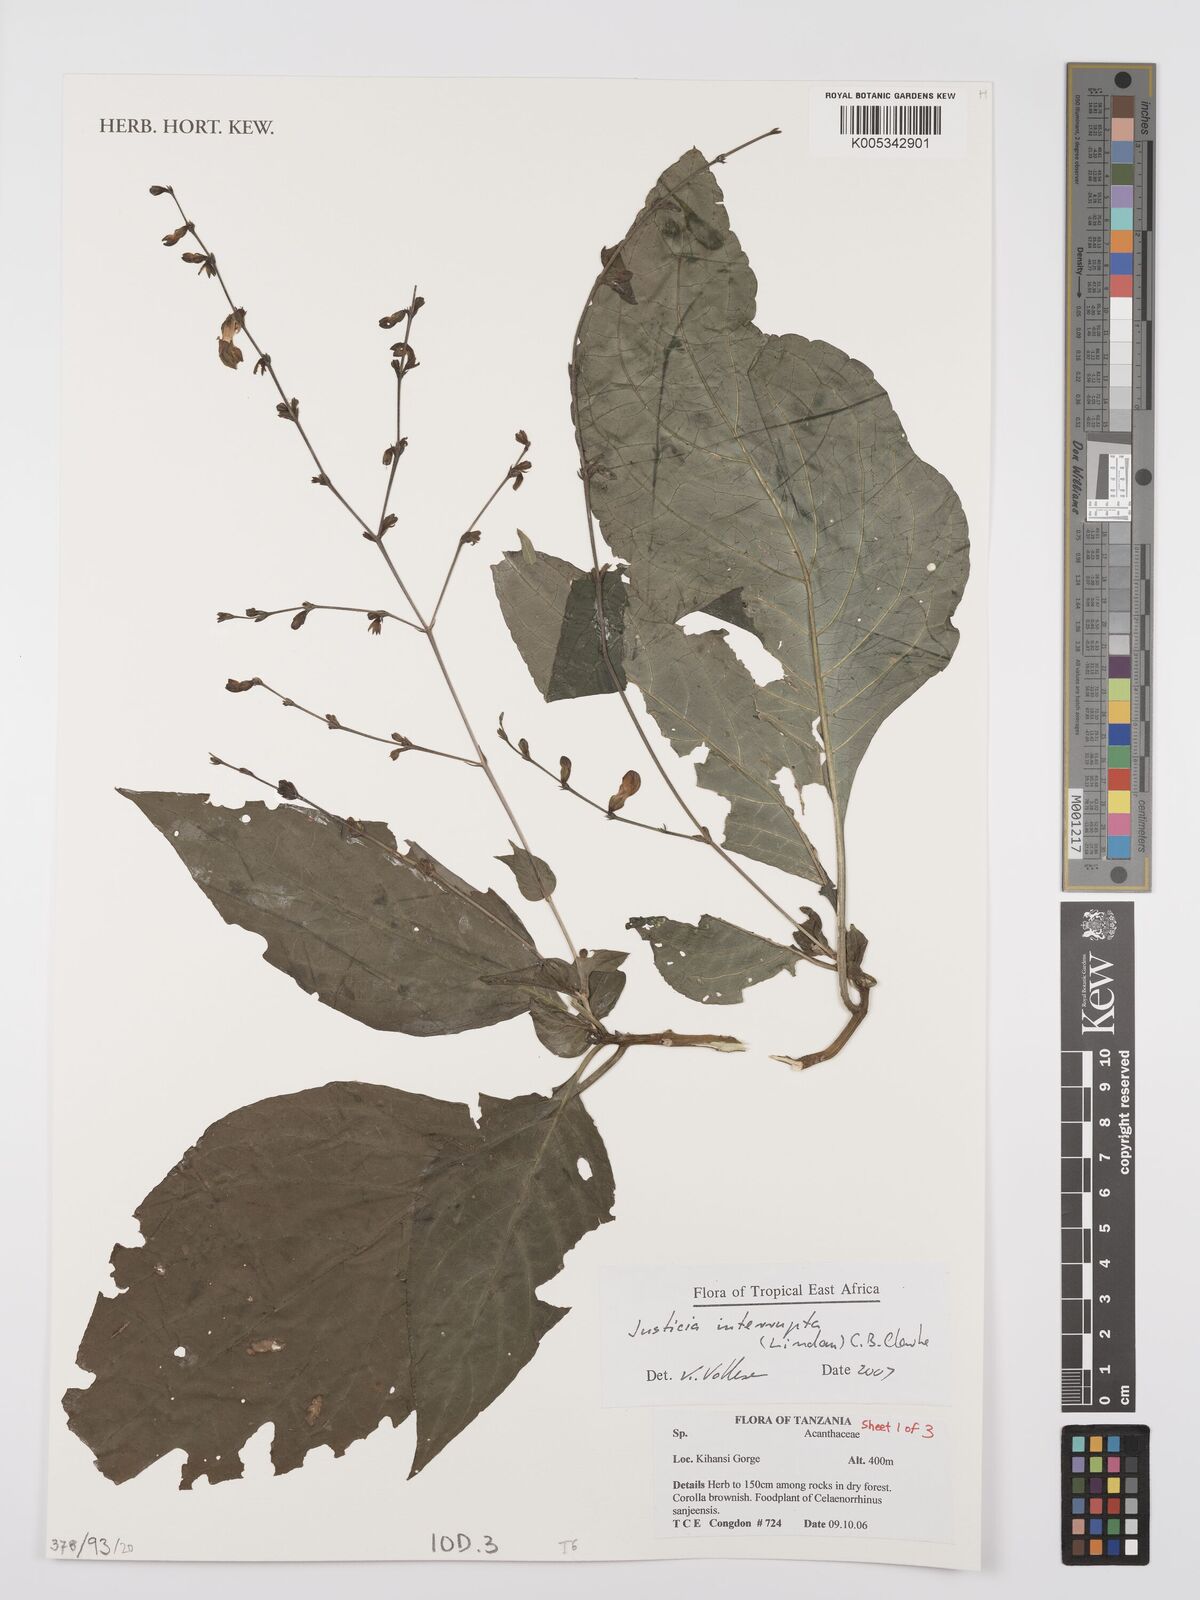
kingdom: Plantae
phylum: Tracheophyta
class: Magnoliopsida
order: Lamiales
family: Acanthaceae
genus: Justicia
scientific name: Justicia plectranthoides
